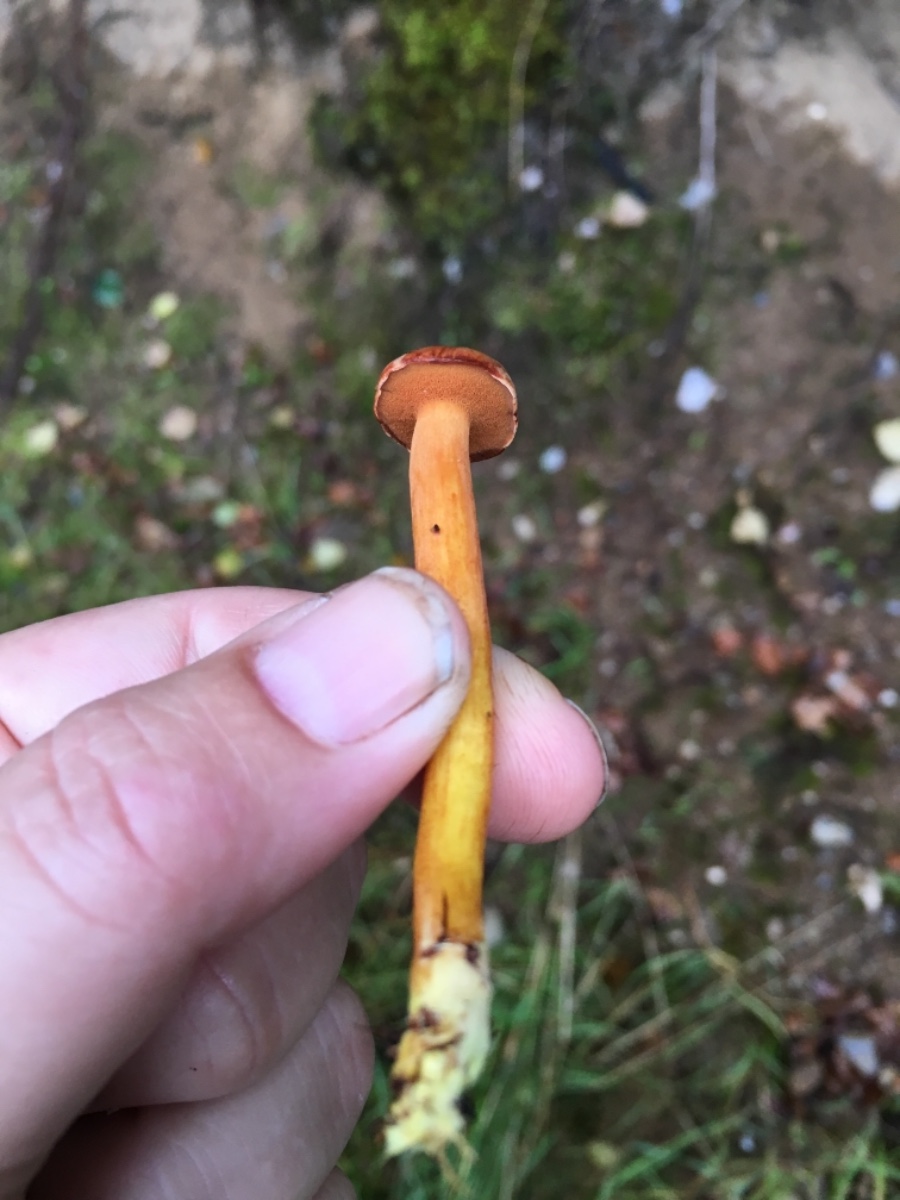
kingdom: Fungi
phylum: Basidiomycota
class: Agaricomycetes
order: Boletales
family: Boletaceae
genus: Chalciporus
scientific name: Chalciporus piperatus
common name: peberrørhat
